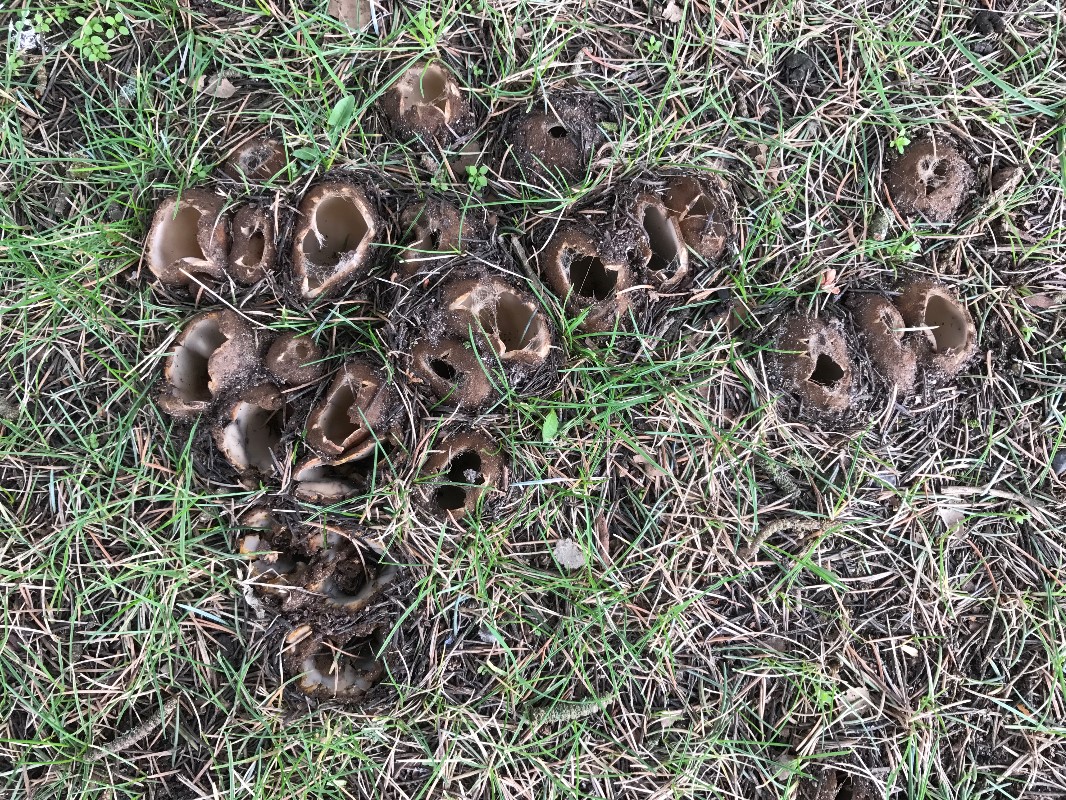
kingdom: Fungi
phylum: Ascomycota
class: Pezizomycetes
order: Pezizales
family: Pyronemataceae
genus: Geopora
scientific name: Geopora sumneriana
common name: vår-jordbæger
